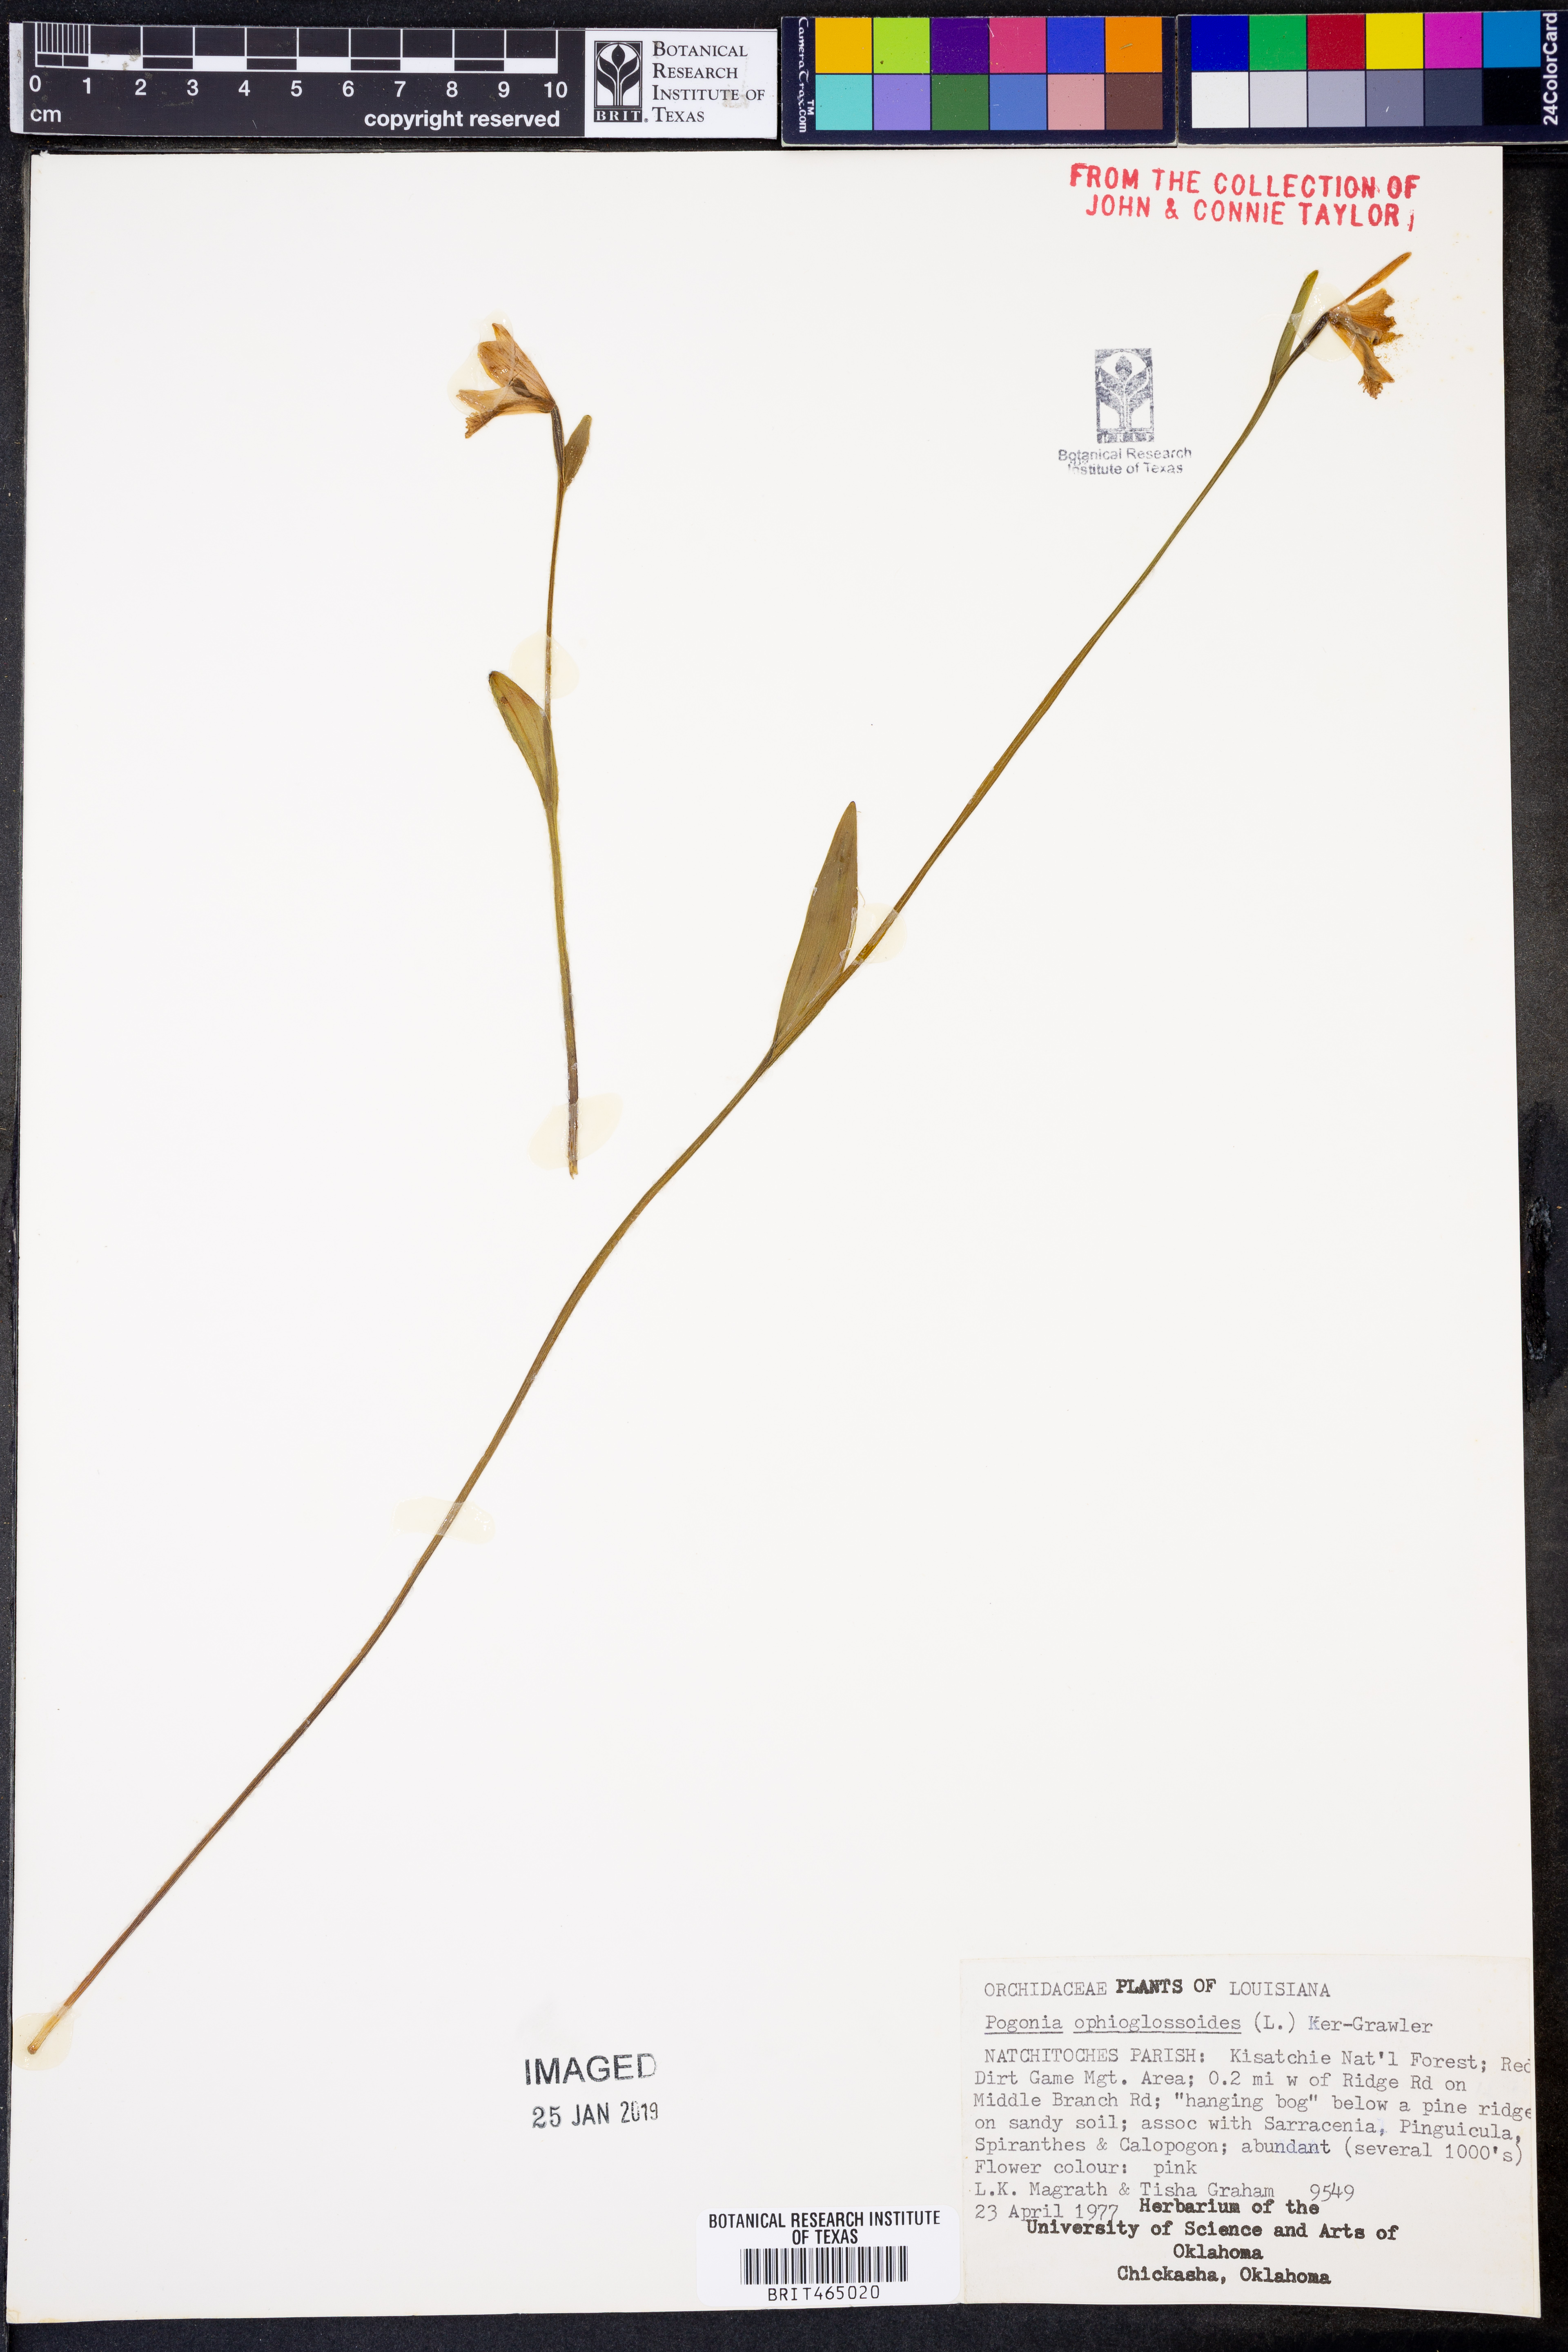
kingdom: Plantae
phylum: Tracheophyta
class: Liliopsida
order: Asparagales
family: Orchidaceae
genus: Pogonia
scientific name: Pogonia ophioglossoides
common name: Rose pogonia
